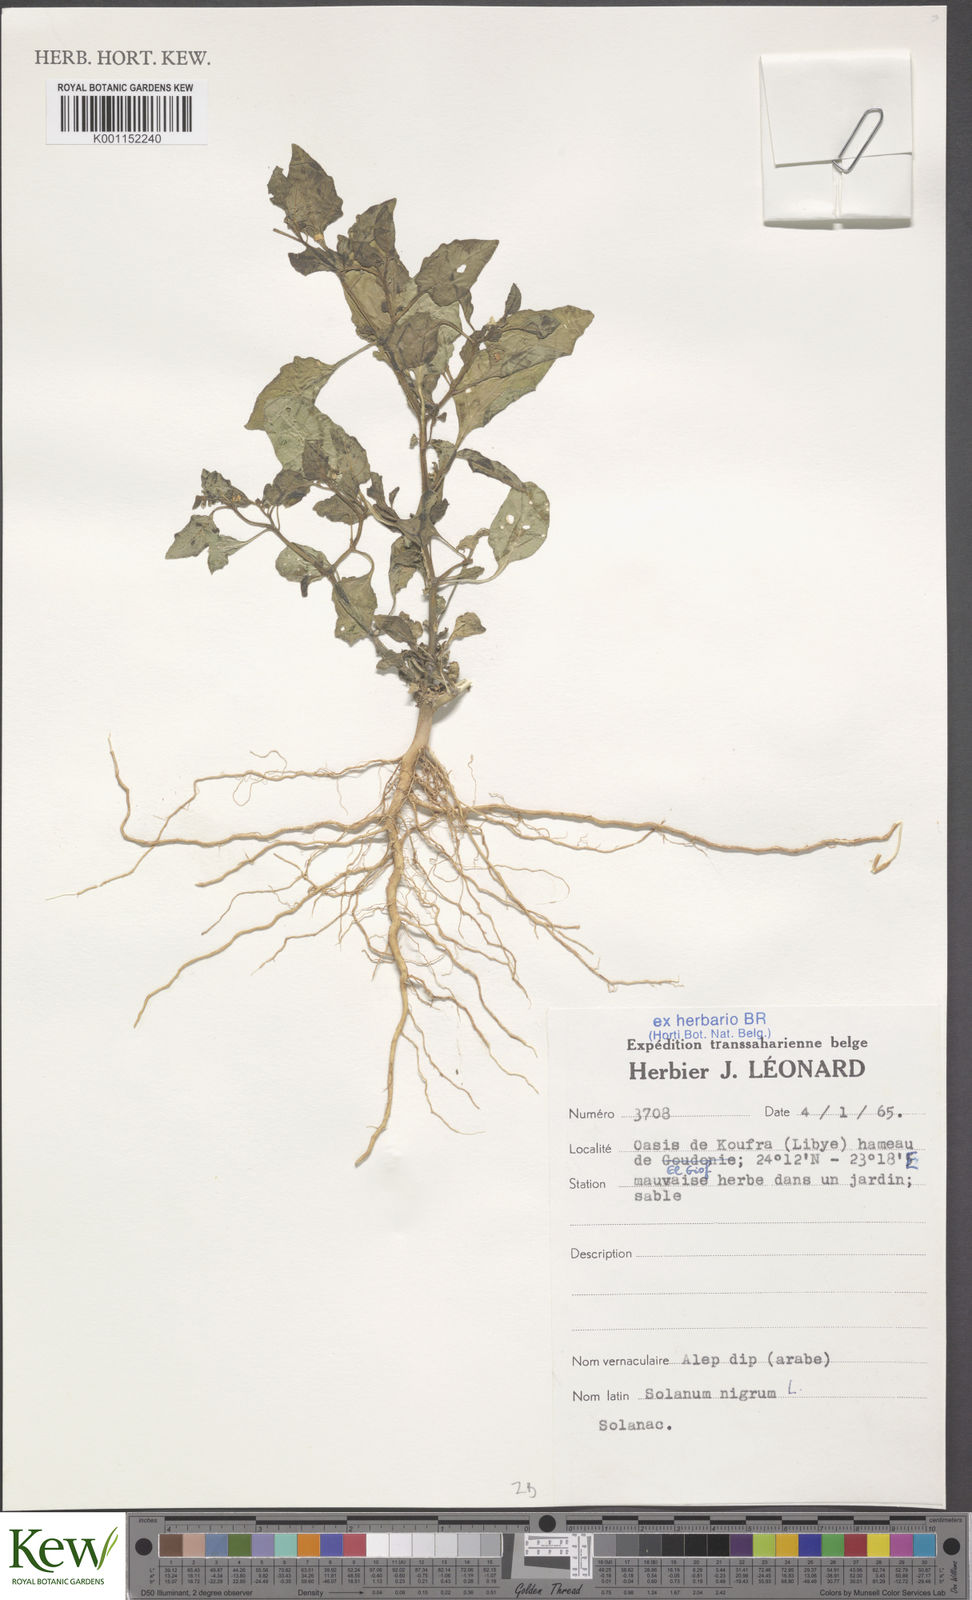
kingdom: Plantae
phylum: Tracheophyta
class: Magnoliopsida
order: Solanales
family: Solanaceae
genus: Solanum
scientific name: Solanum nigrum
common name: Black nightshade
